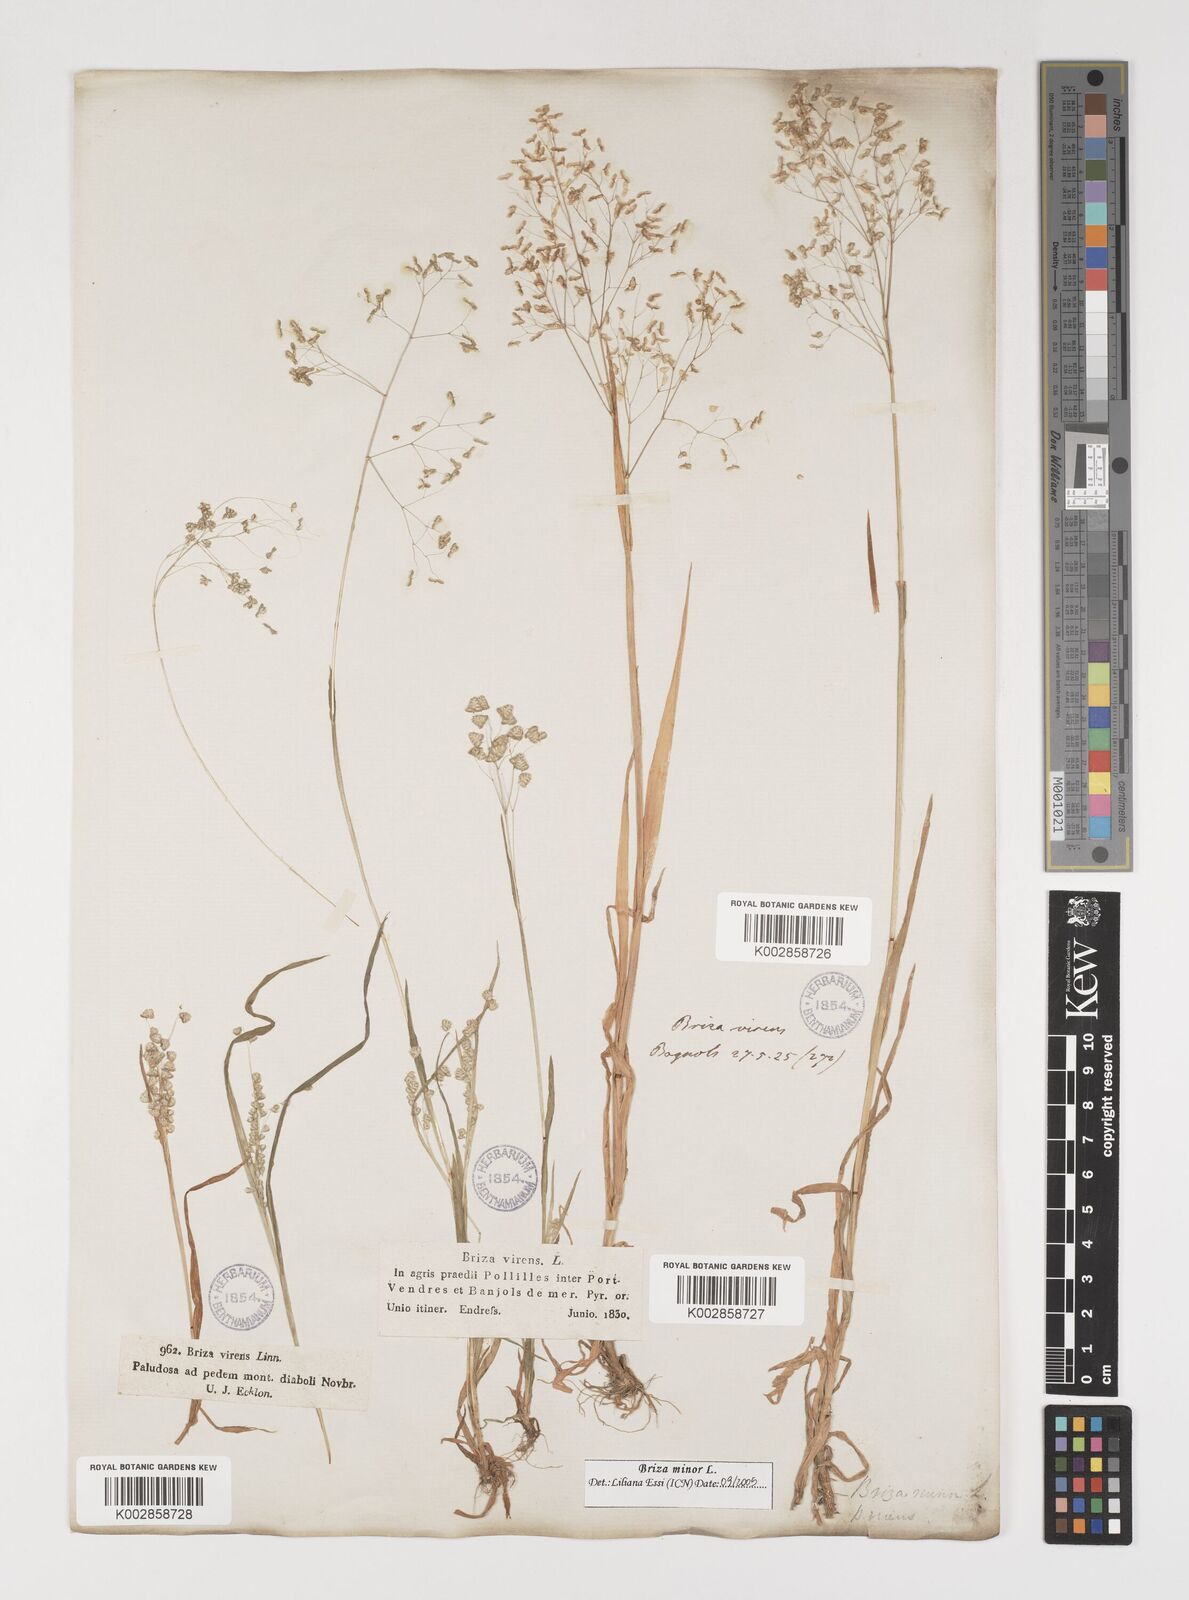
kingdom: Plantae
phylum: Tracheophyta
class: Liliopsida
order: Poales
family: Poaceae
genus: Briza
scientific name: Briza minor
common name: Lesser quaking-grass
